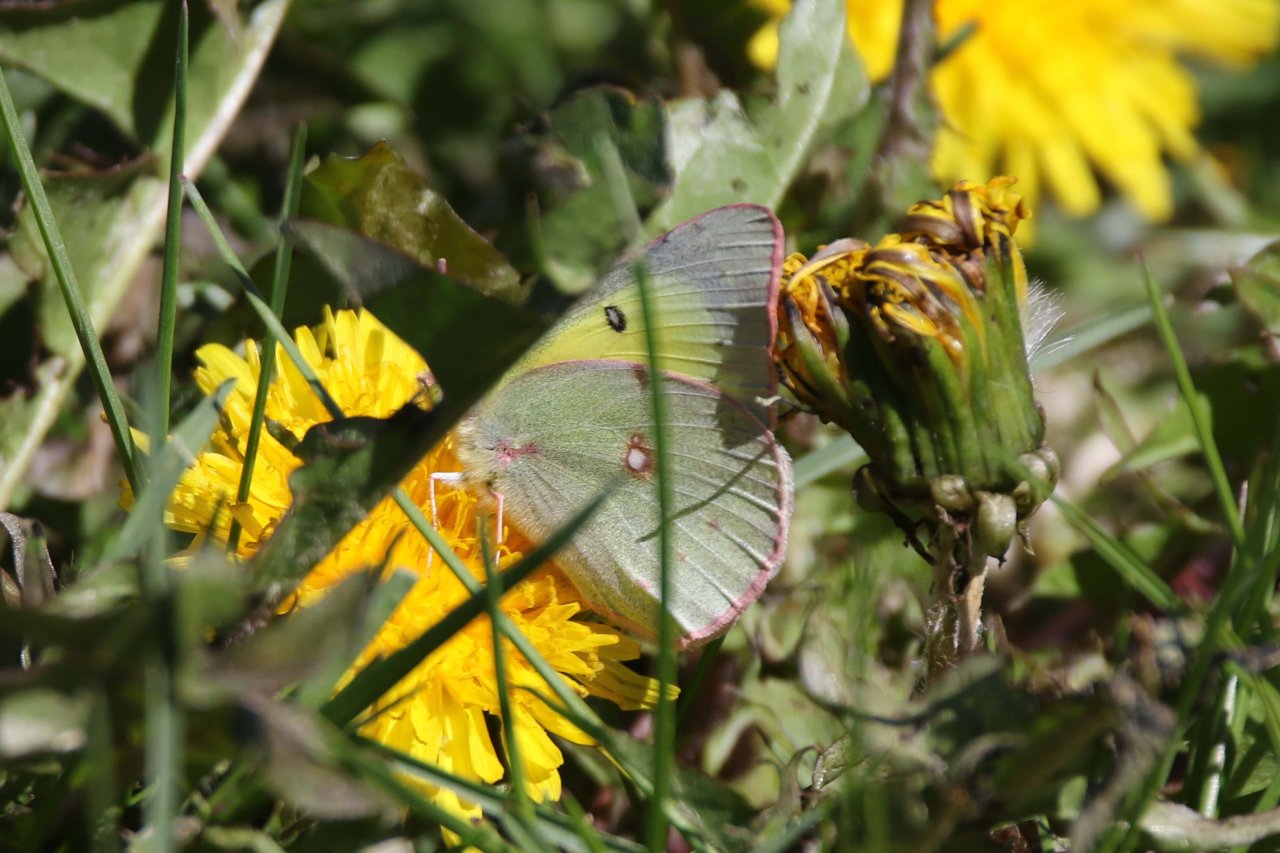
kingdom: Animalia
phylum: Arthropoda
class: Insecta
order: Lepidoptera
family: Pieridae
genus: Colias
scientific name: Colias philodice
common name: Clouded Sulphur
